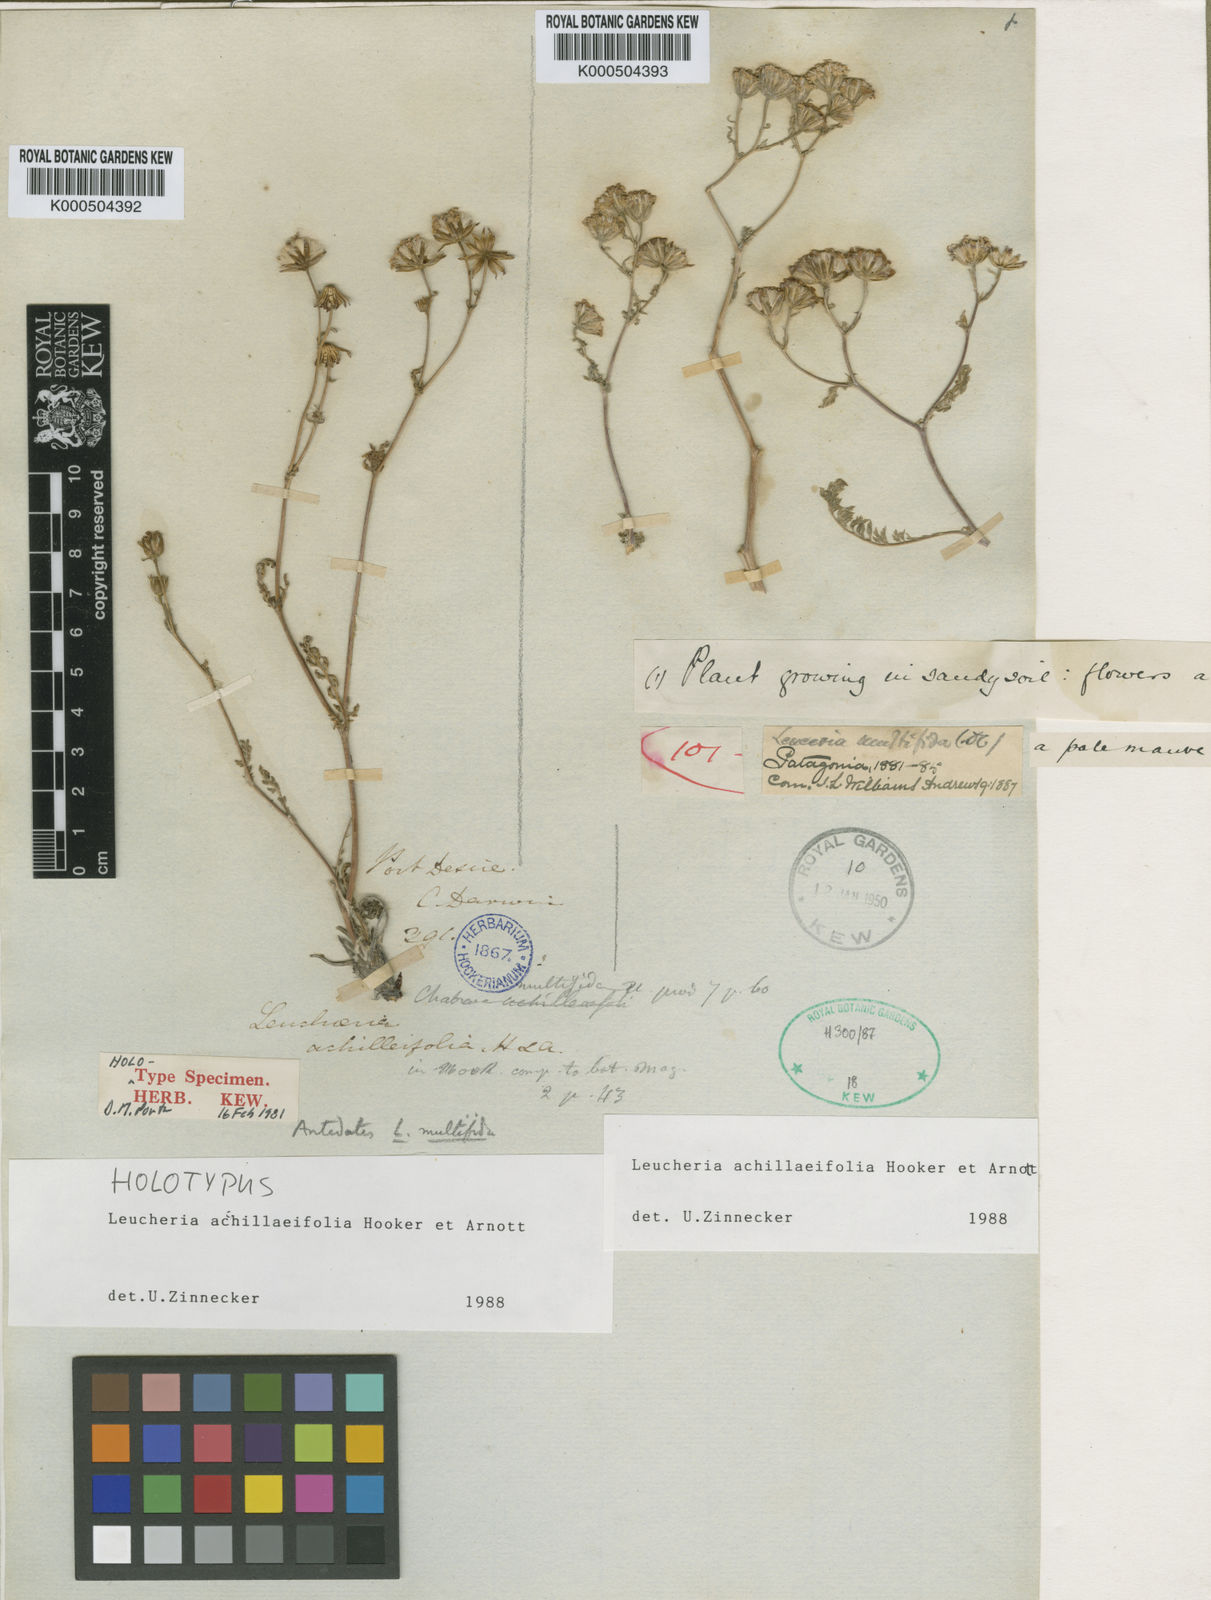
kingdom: Plantae
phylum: Tracheophyta
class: Magnoliopsida
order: Asterales
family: Asteraceae
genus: Leucheria
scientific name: Leucheria
